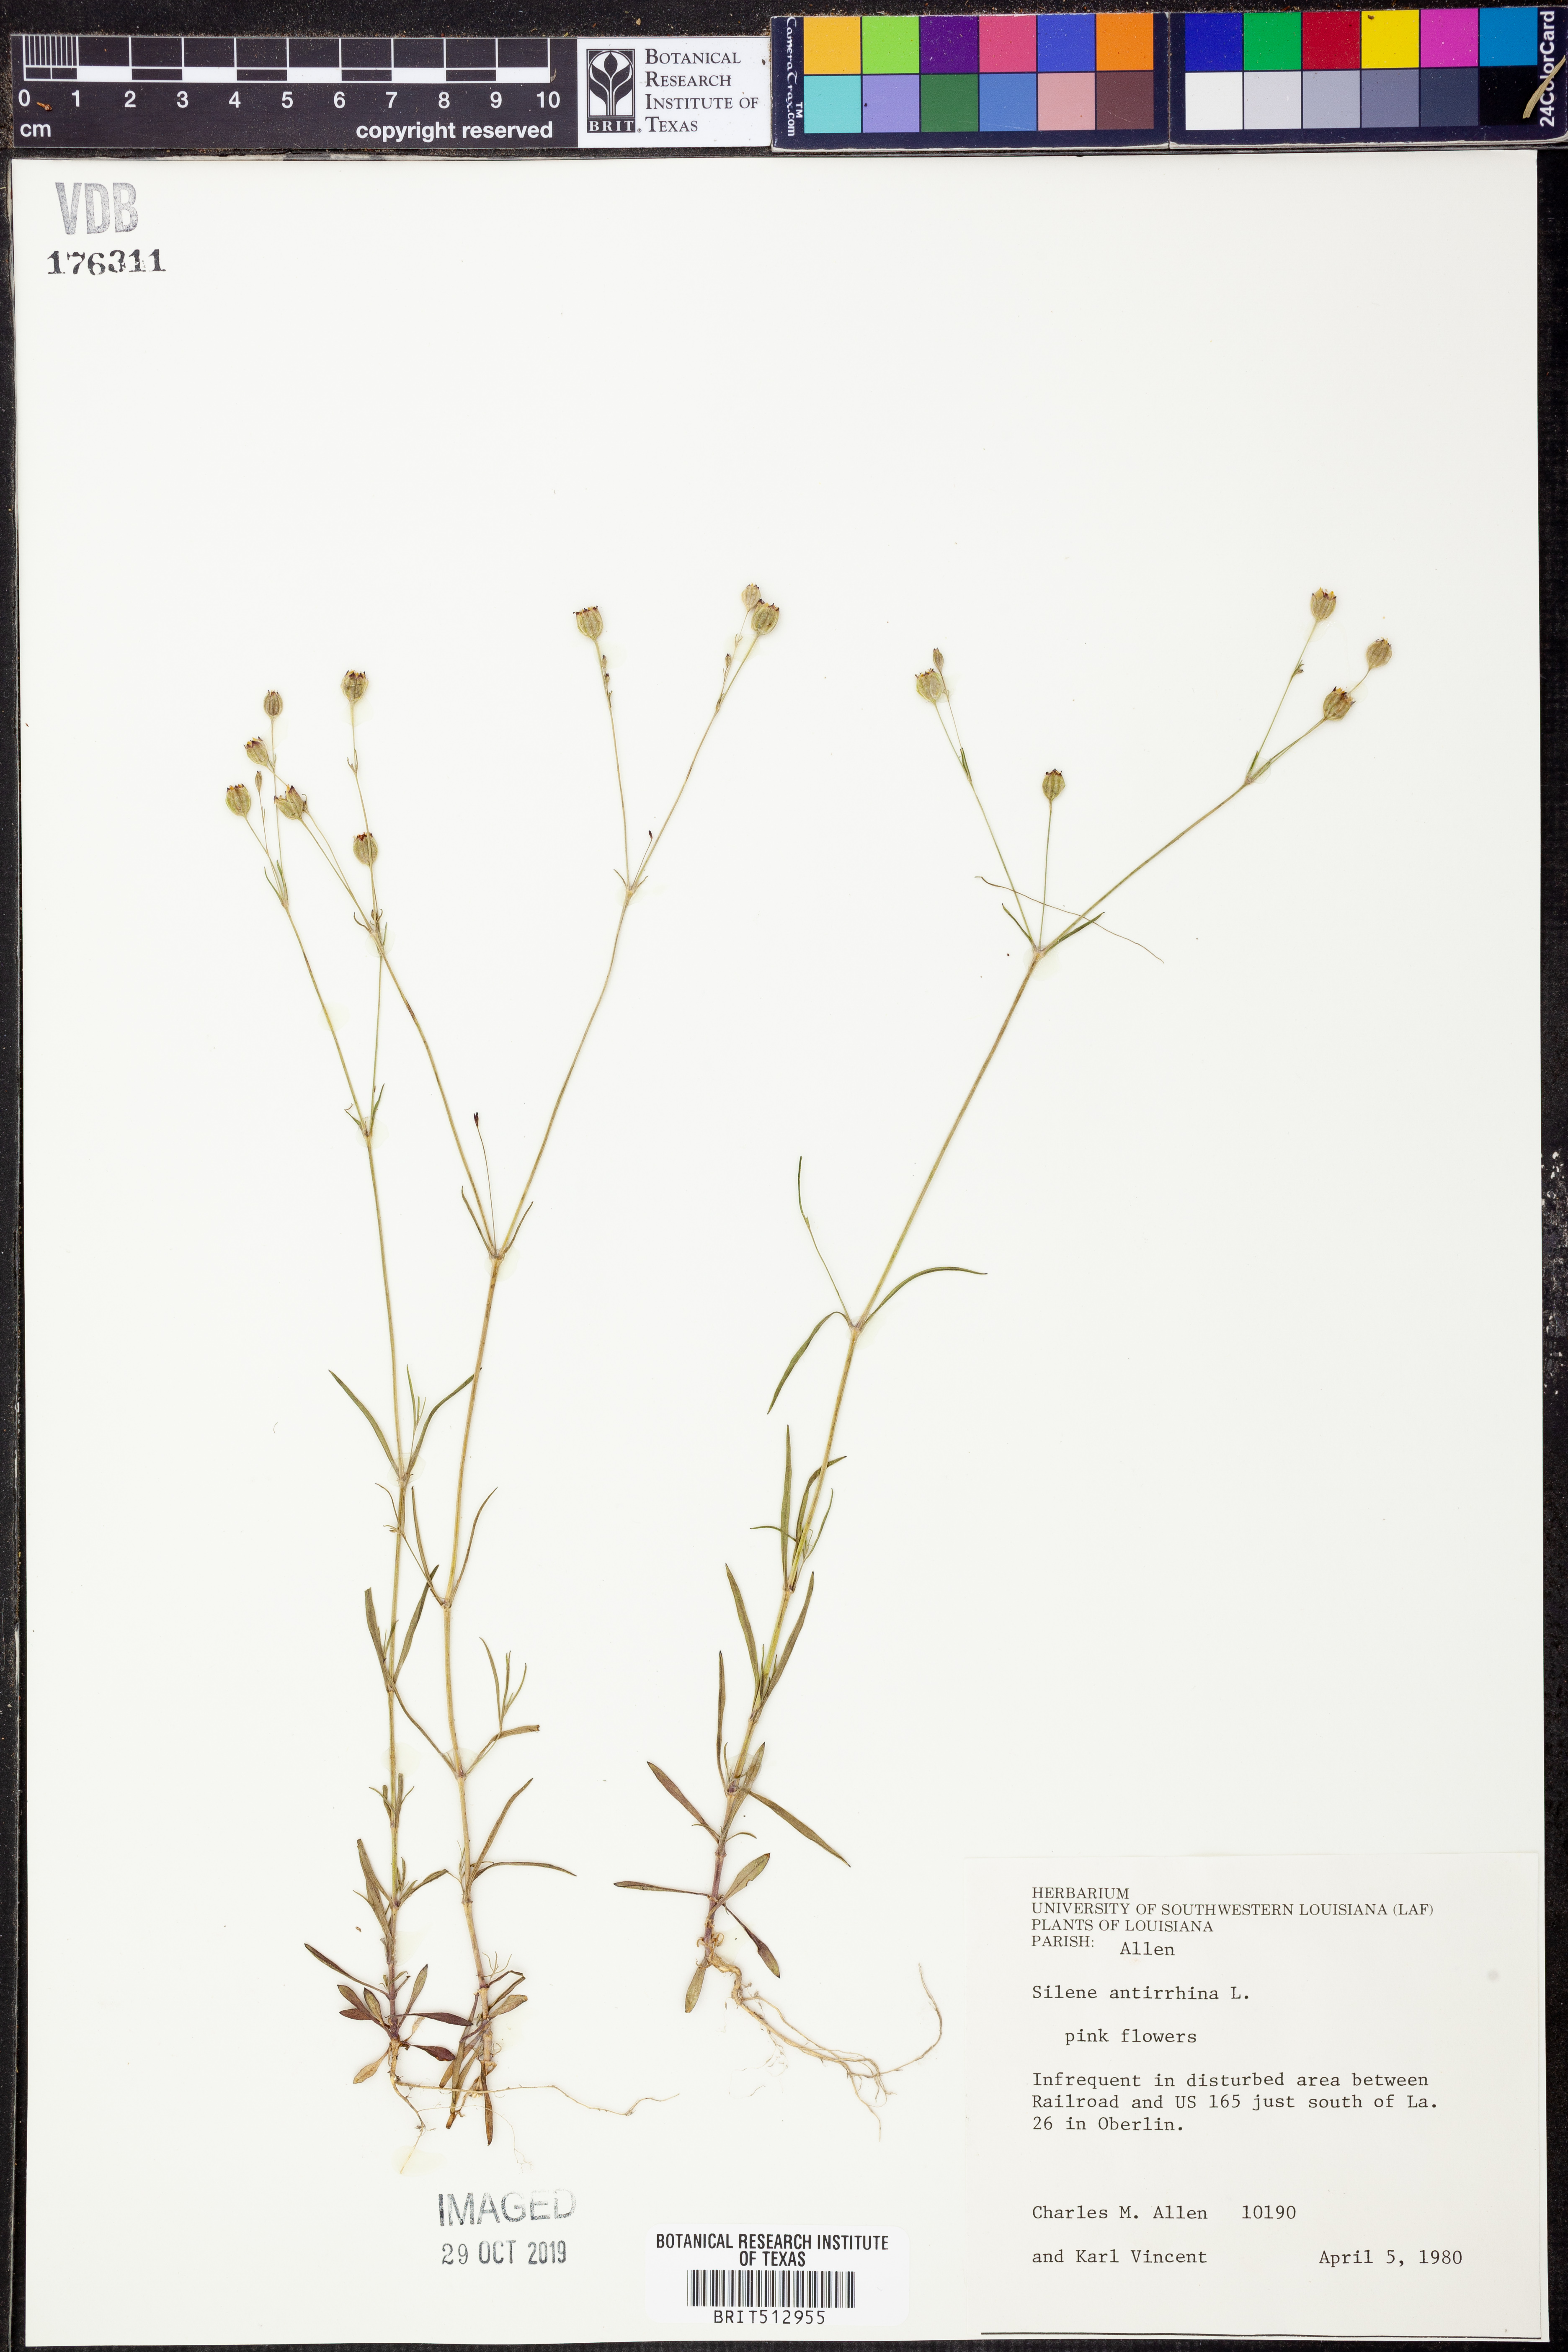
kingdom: Plantae
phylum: Tracheophyta
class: Magnoliopsida
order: Caryophyllales
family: Caryophyllaceae
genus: Silene
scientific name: Silene antirrhina
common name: Sleepy catchfly
